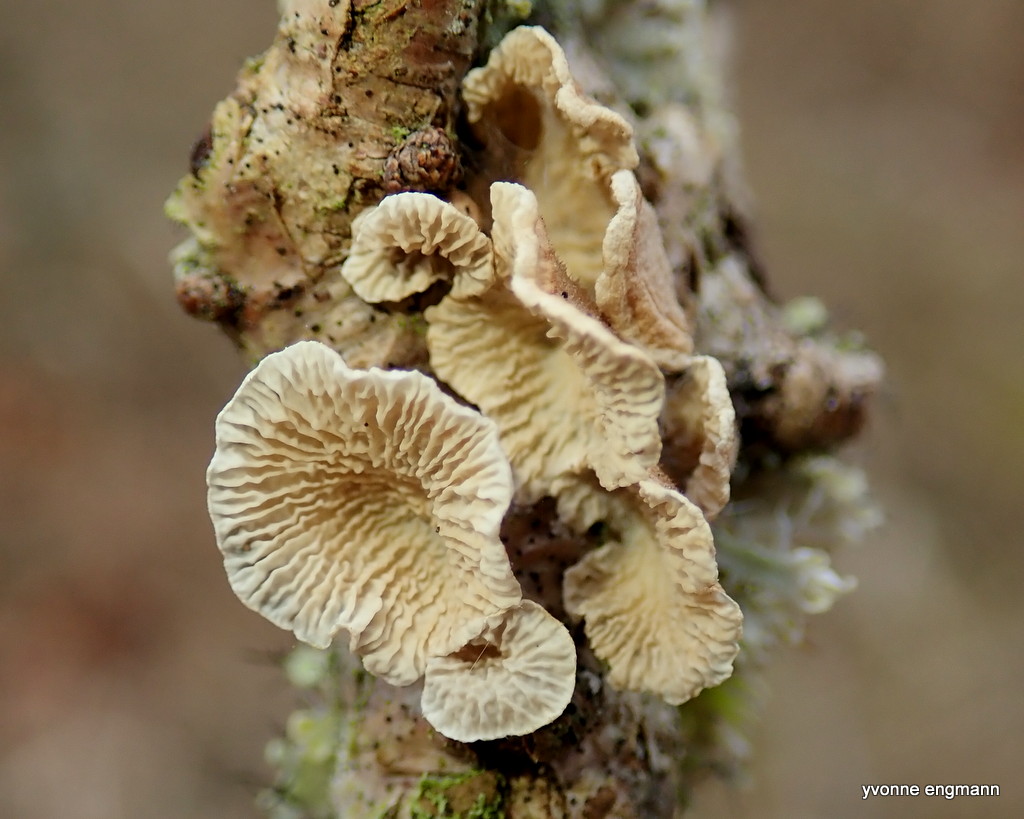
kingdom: Fungi
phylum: Basidiomycota
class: Agaricomycetes
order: Amylocorticiales
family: Amylocorticiaceae
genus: Plicaturopsis
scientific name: Plicaturopsis crispa
